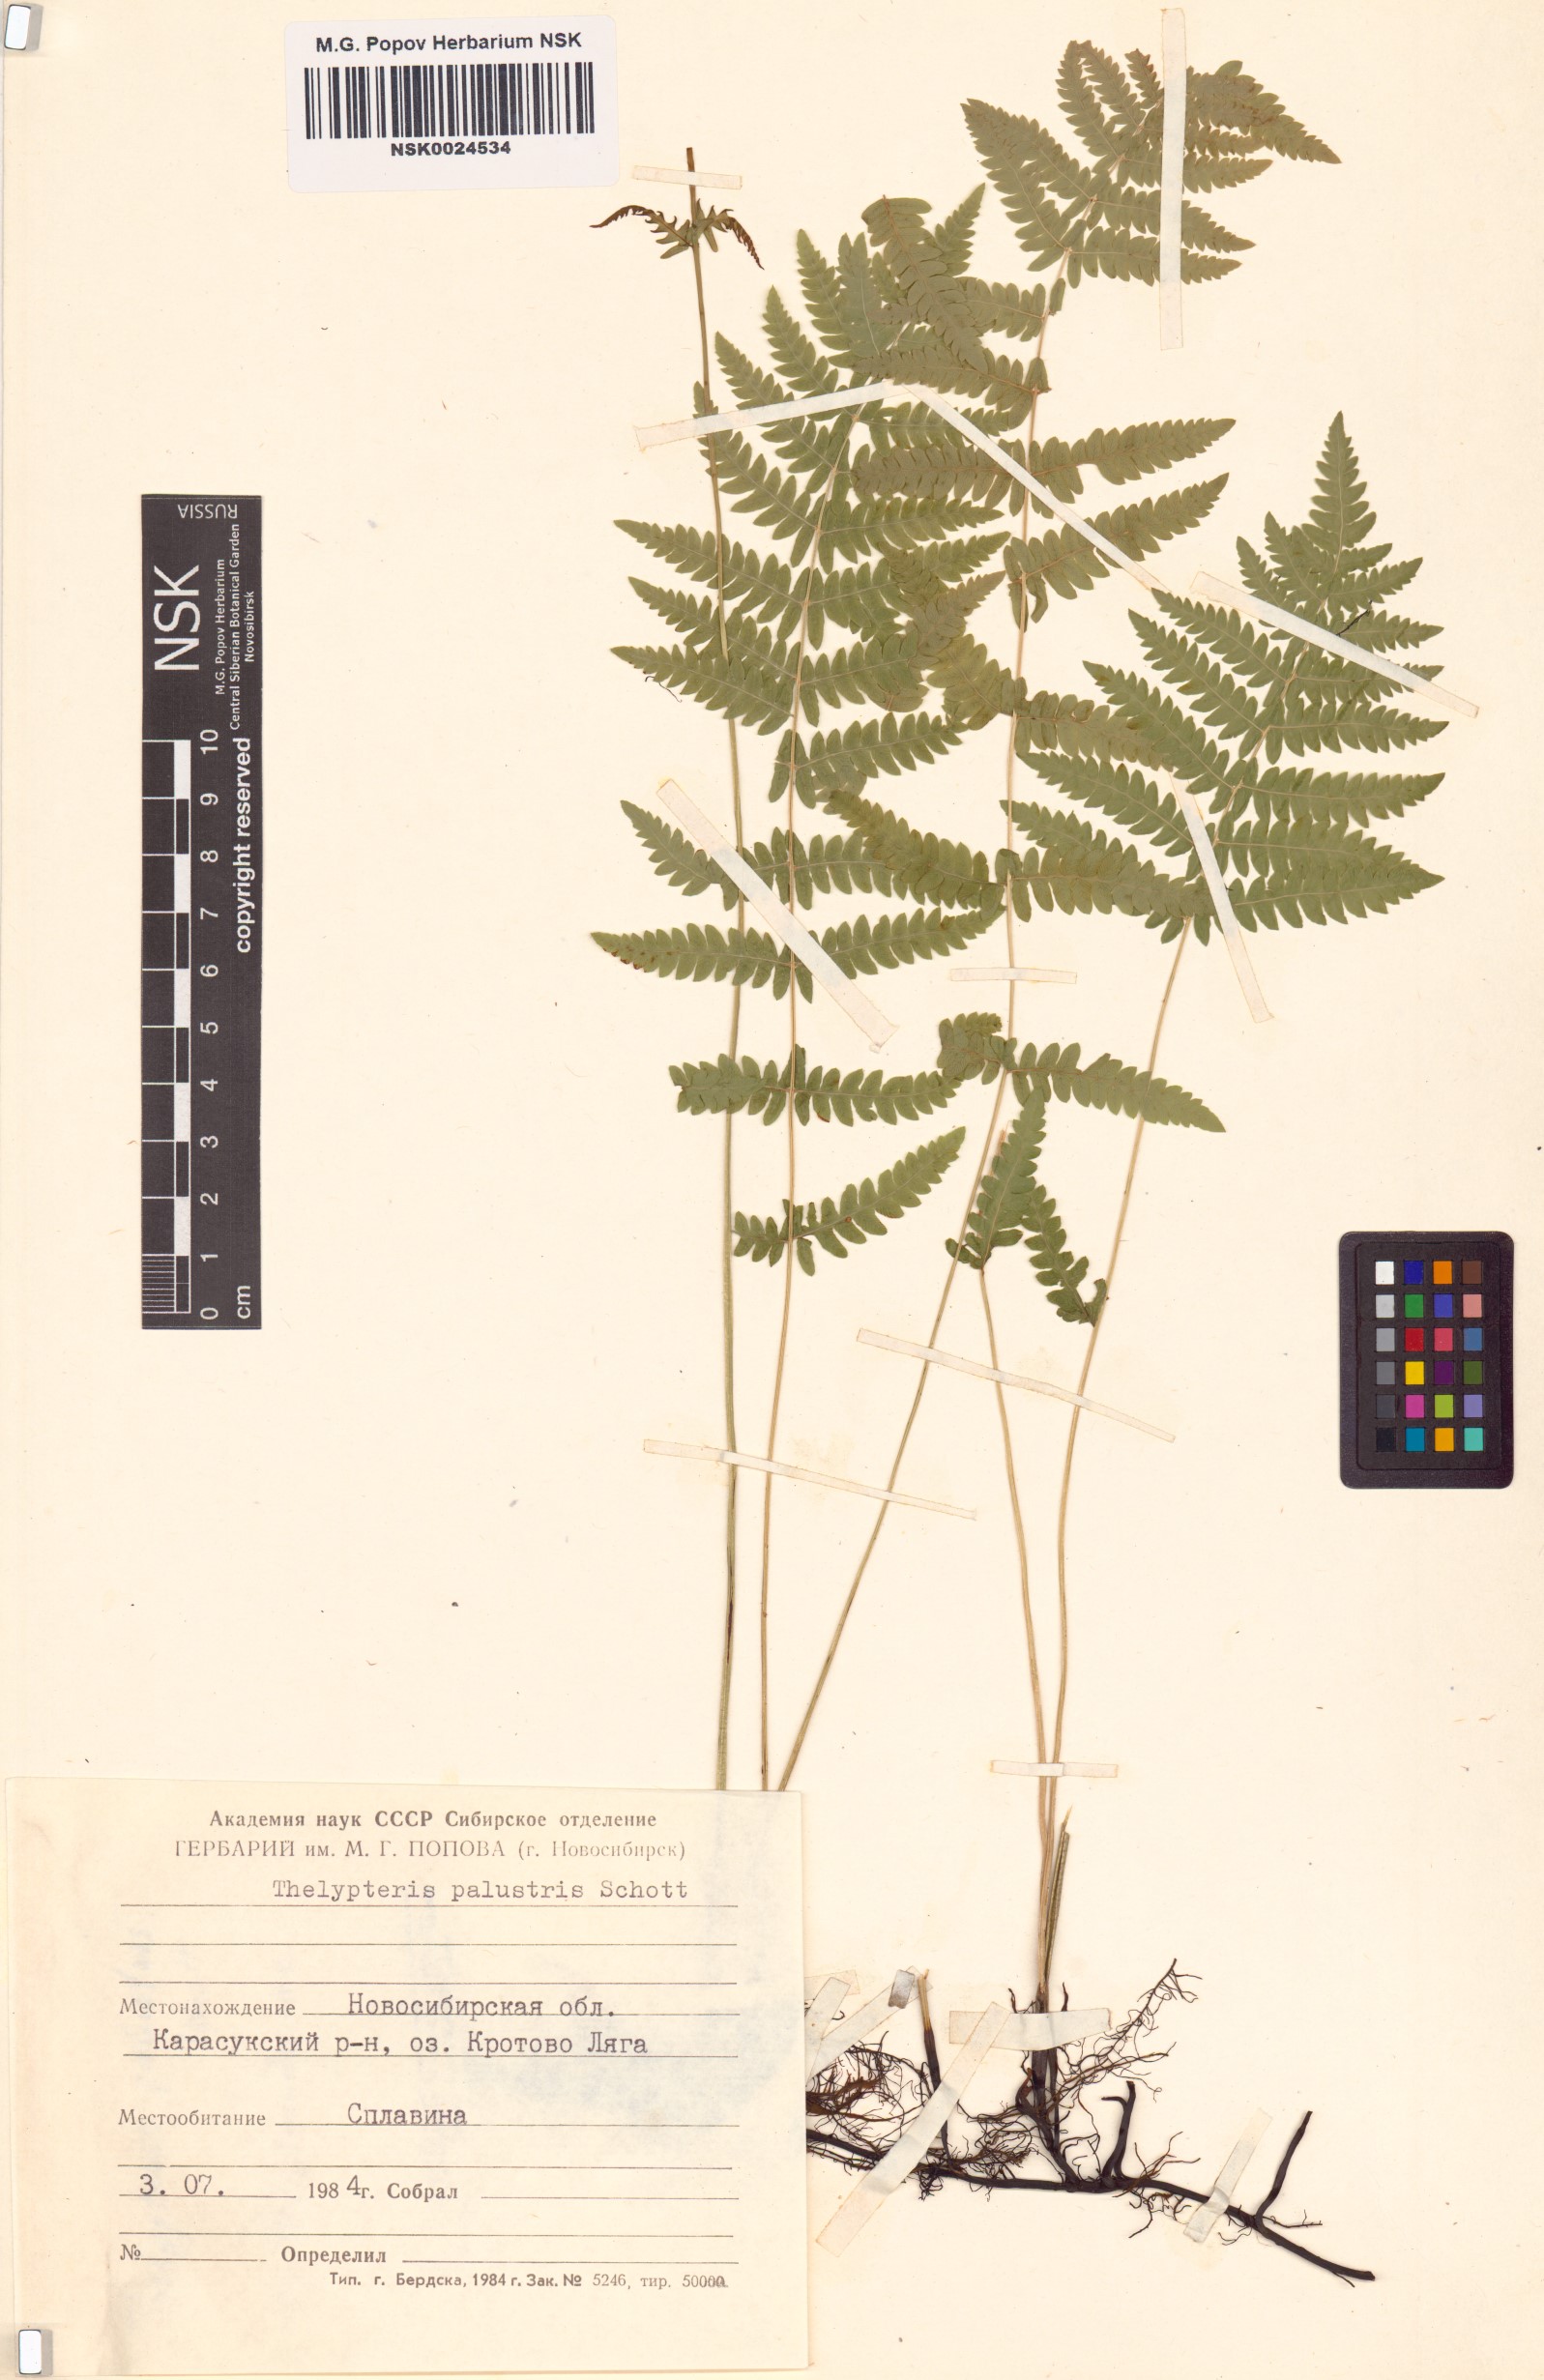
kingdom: Plantae
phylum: Tracheophyta
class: Polypodiopsida
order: Polypodiales
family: Thelypteridaceae
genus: Thelypteris
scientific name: Thelypteris palustris
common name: Marsh fern
